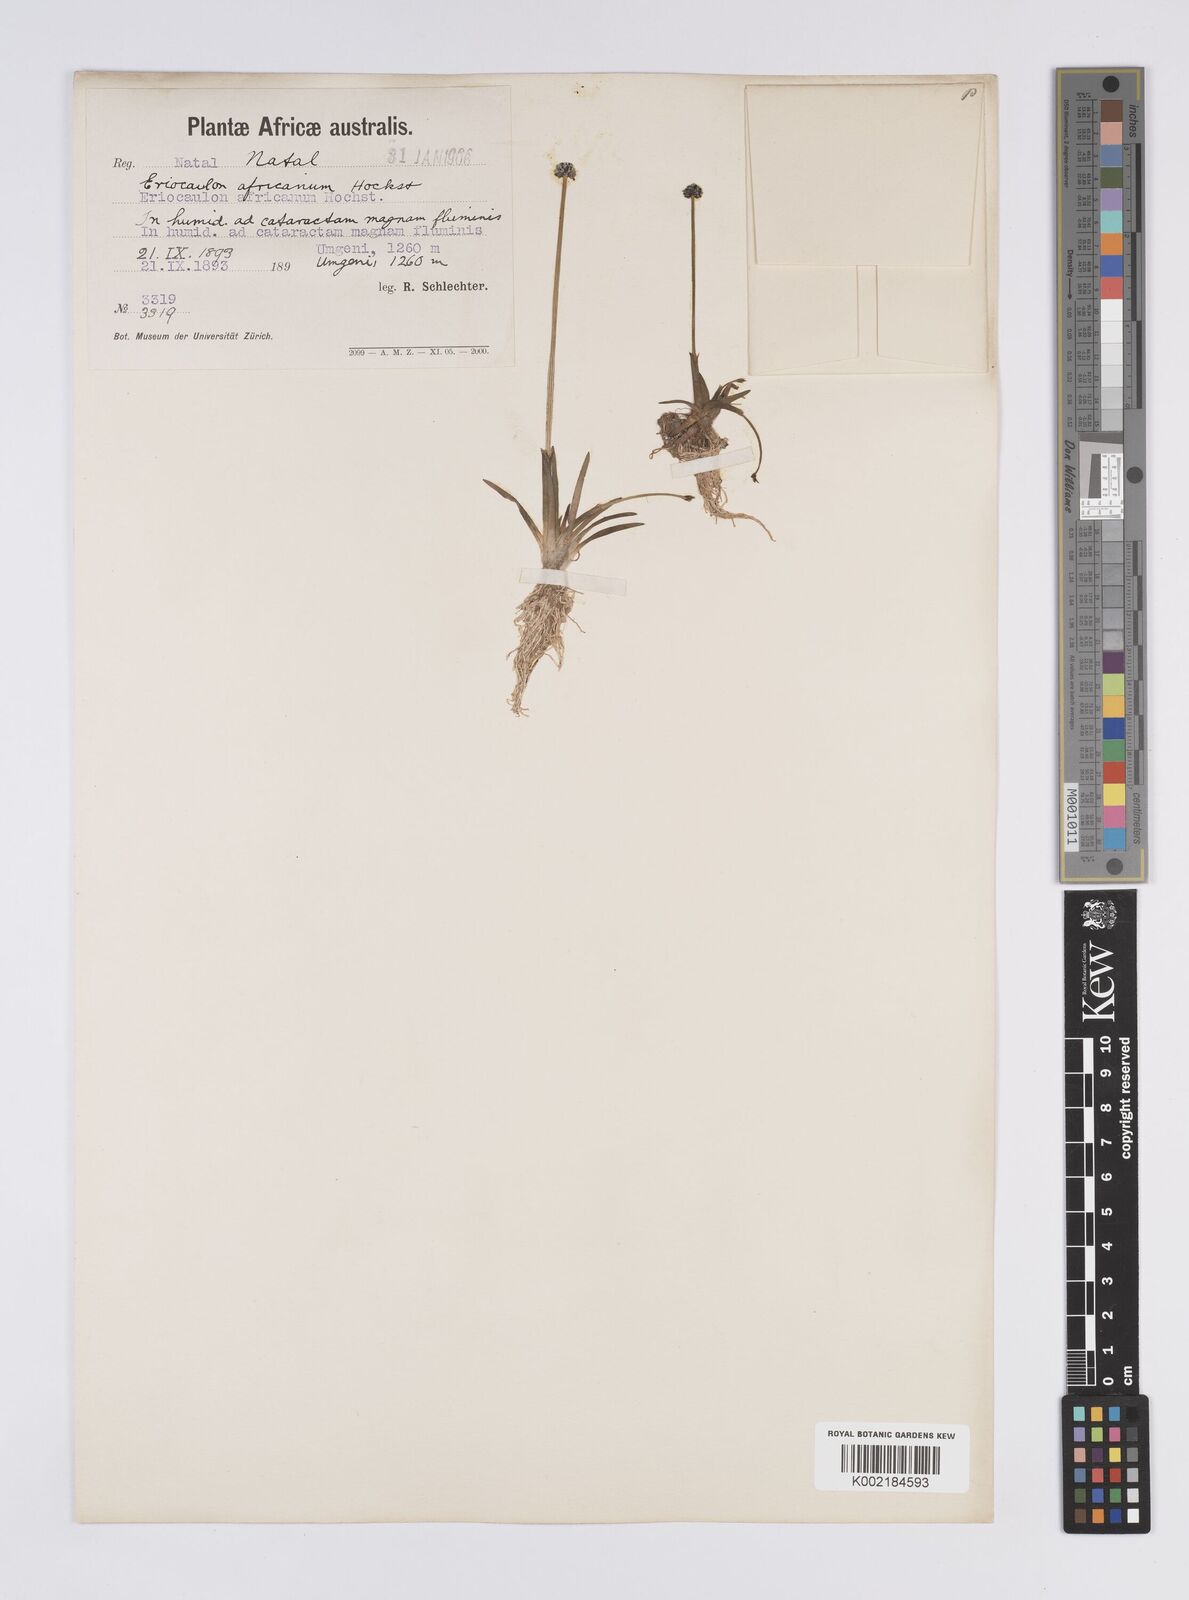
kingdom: Plantae
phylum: Tracheophyta
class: Liliopsida
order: Poales
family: Eriocaulaceae
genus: Eriocaulon
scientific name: Eriocaulon africanum
